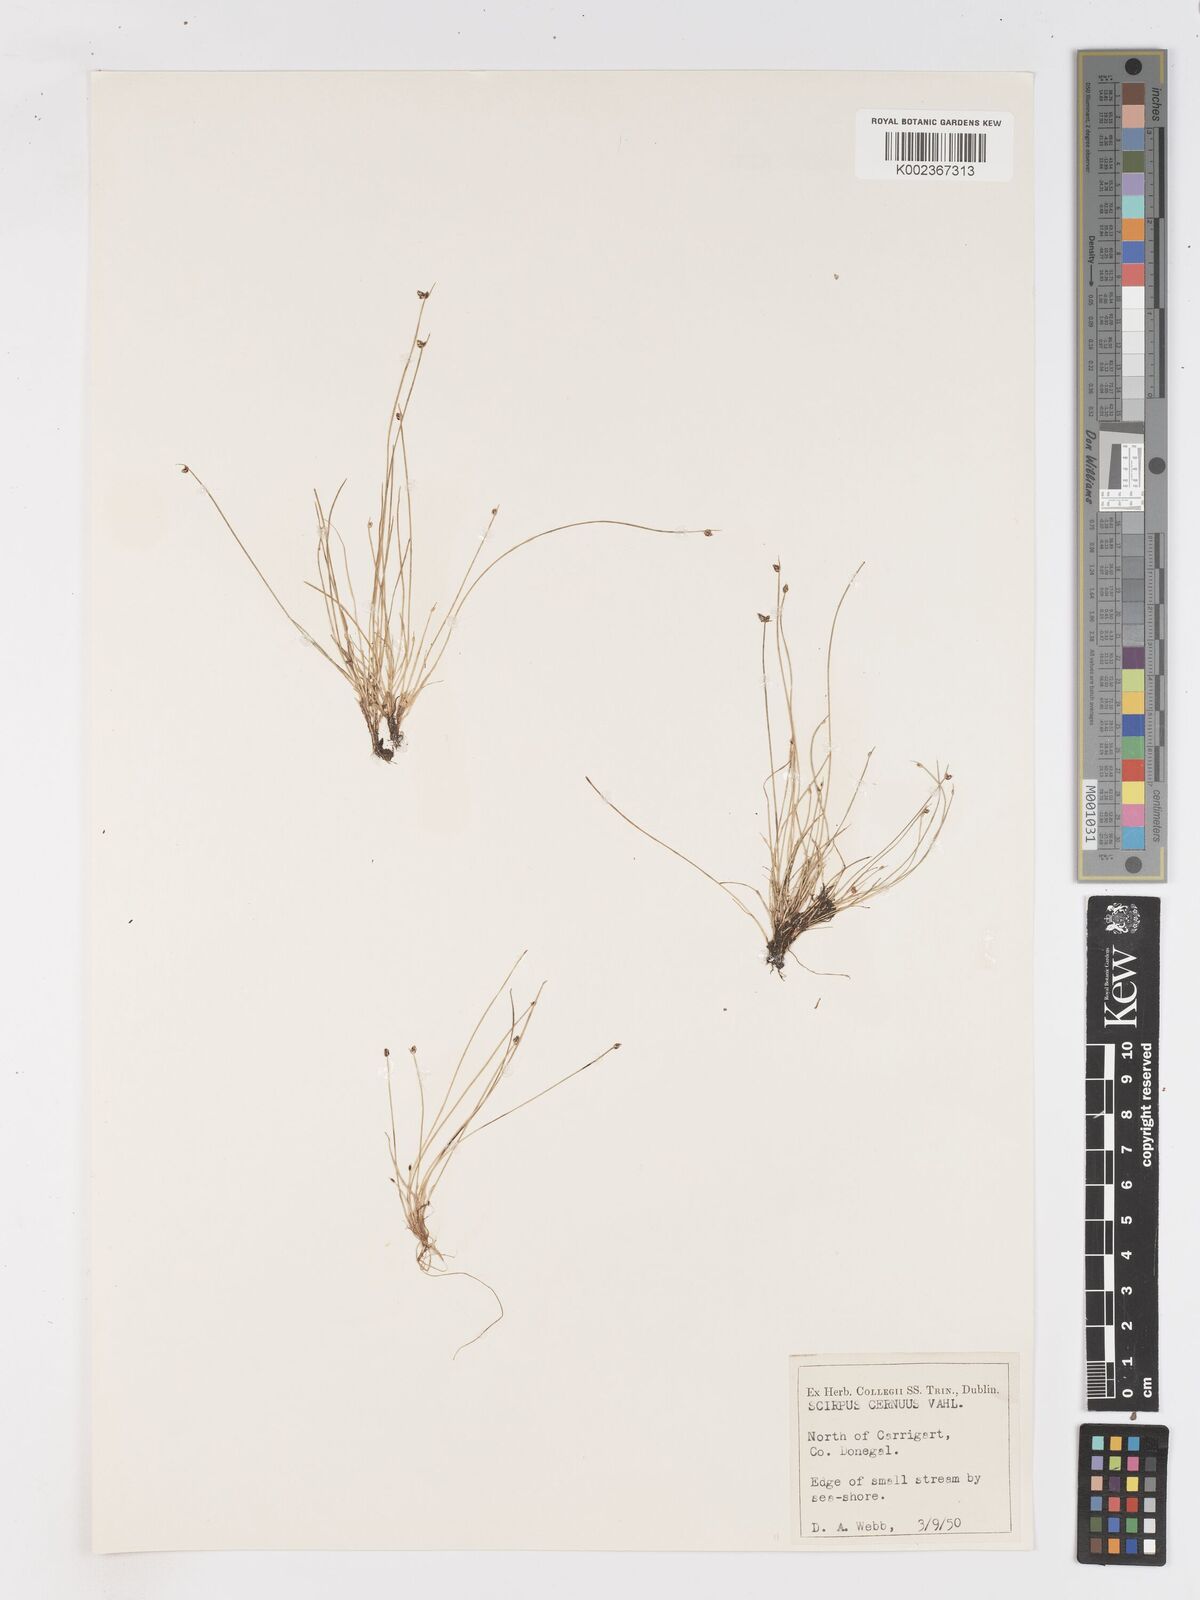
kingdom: Plantae
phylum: Tracheophyta
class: Liliopsida
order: Poales
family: Cyperaceae
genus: Isolepis
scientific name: Isolepis cernua
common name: Slender club-rush
